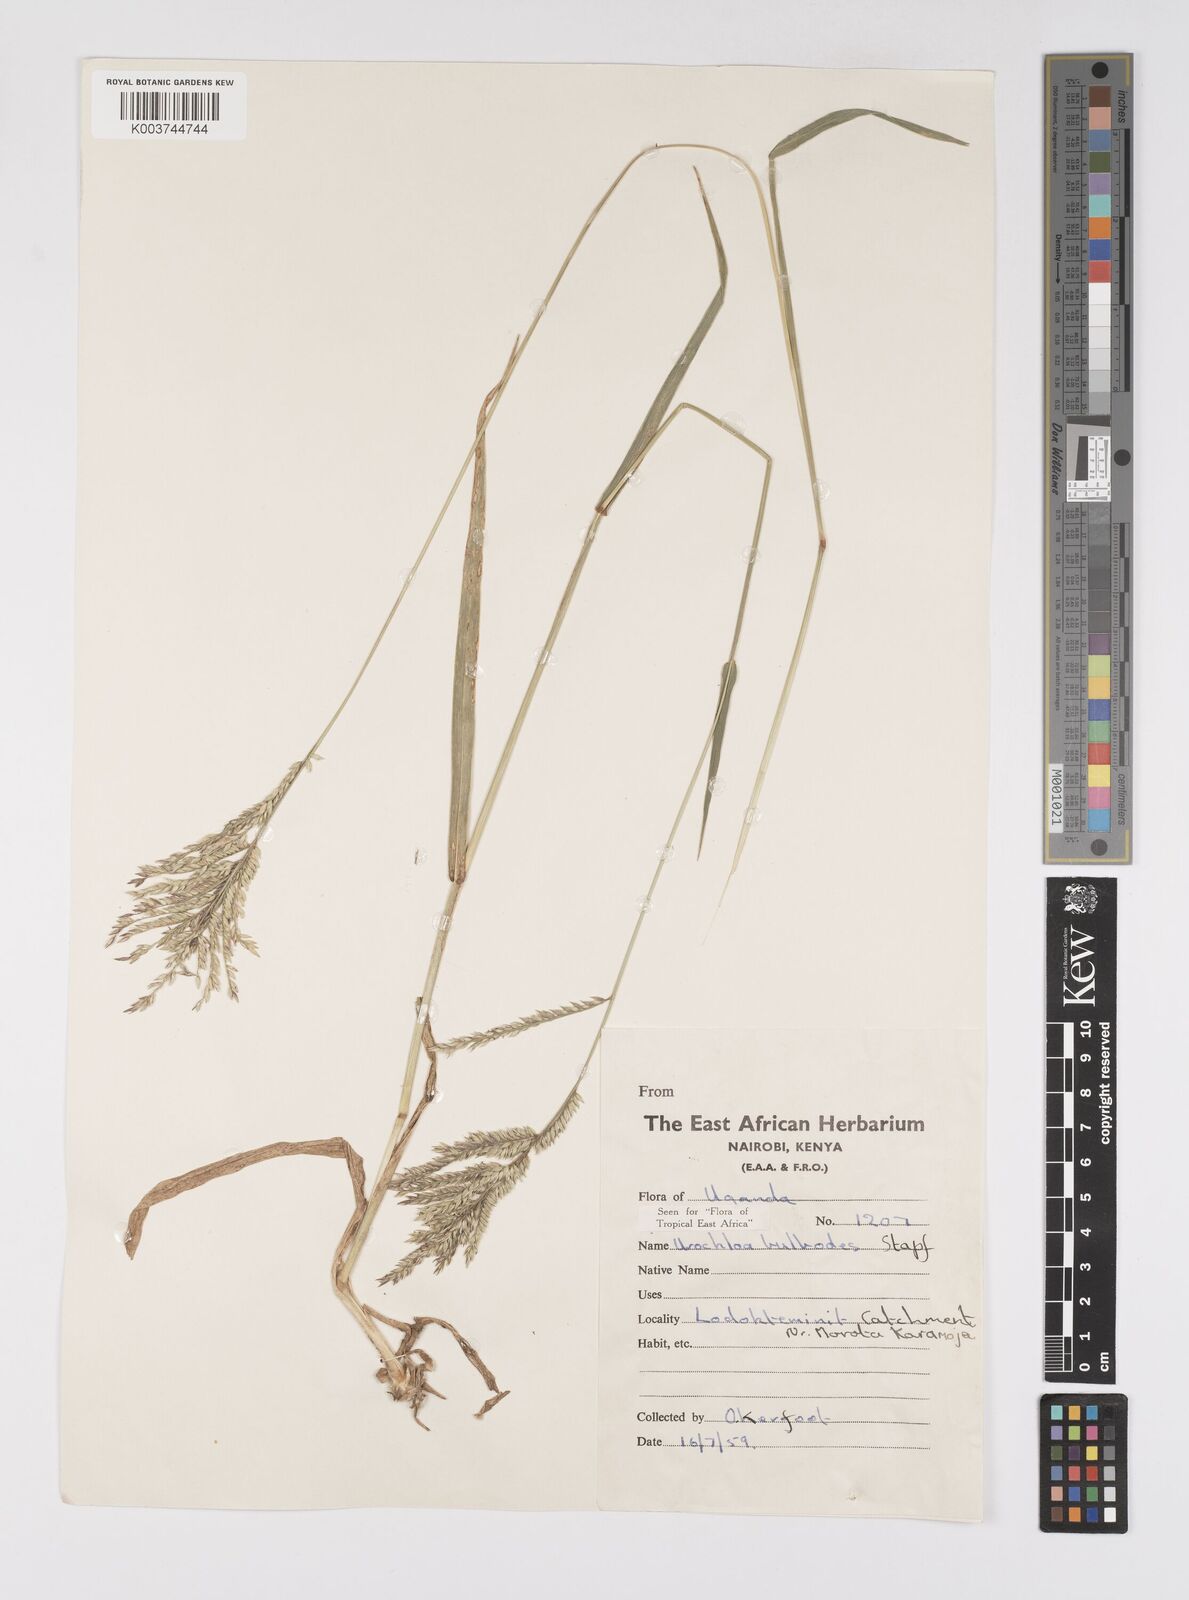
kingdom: Plantae
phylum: Tracheophyta
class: Liliopsida
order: Poales
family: Poaceae
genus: Urochloa
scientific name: Urochloa oligotricha
